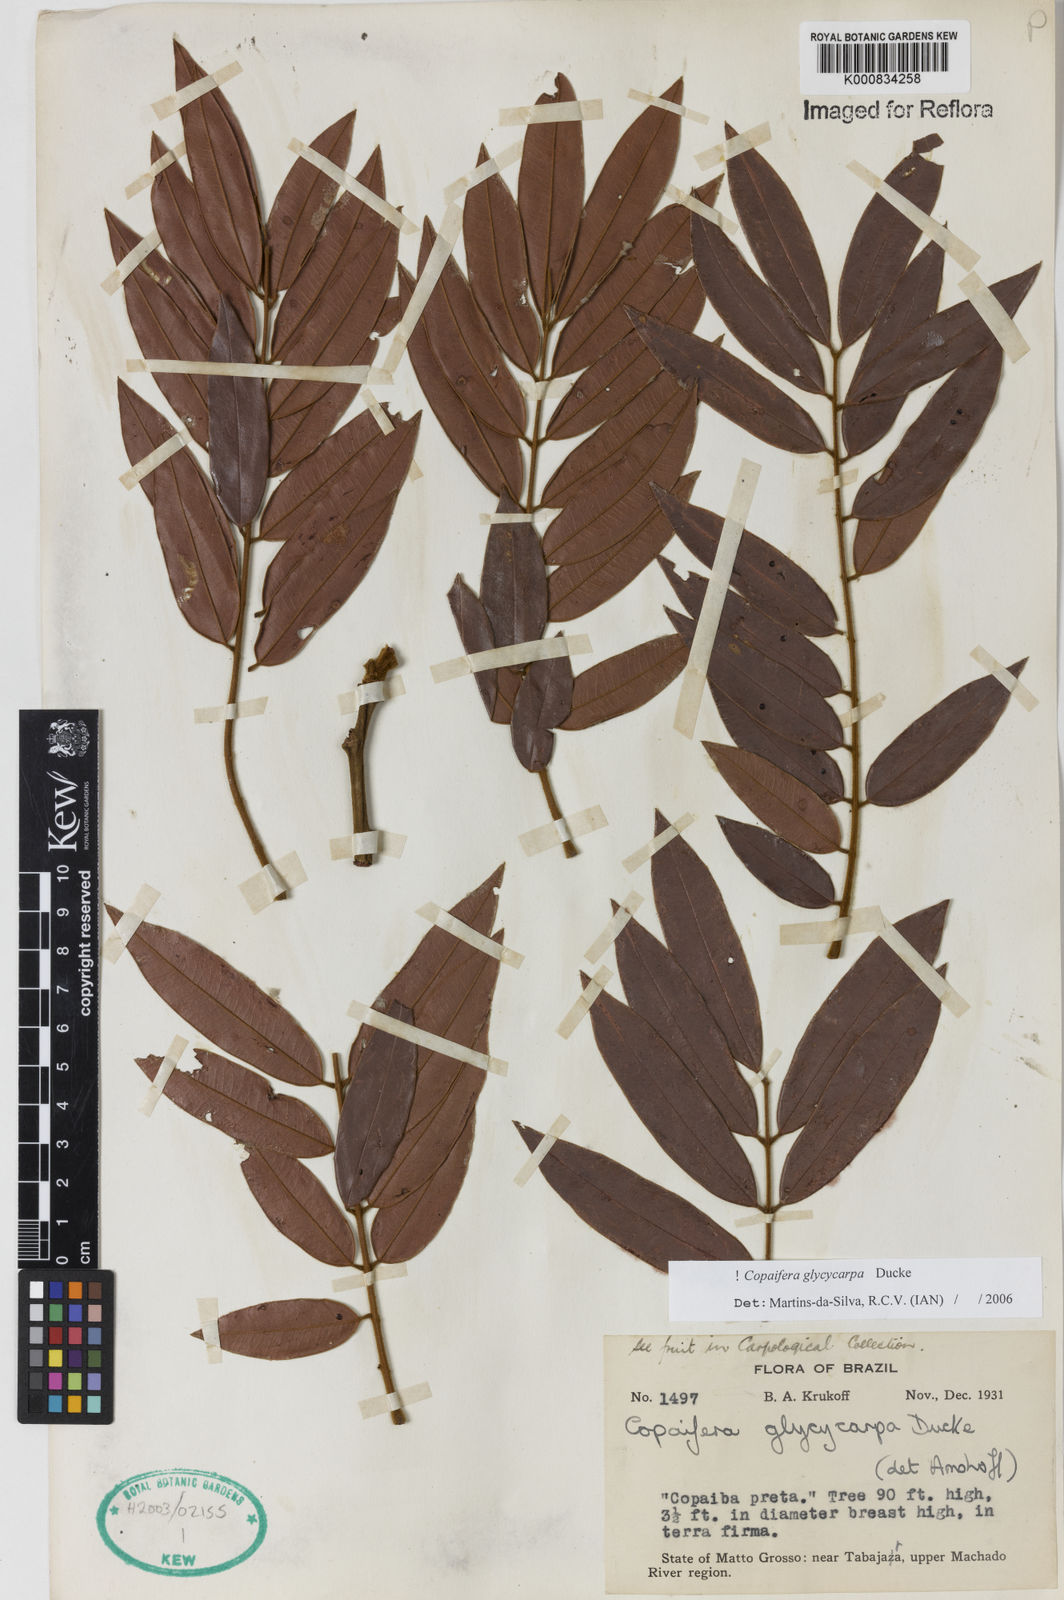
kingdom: Plantae
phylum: Tracheophyta
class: Magnoliopsida
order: Fabales
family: Fabaceae
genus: Copaifera
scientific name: Copaifera glycycarpa
